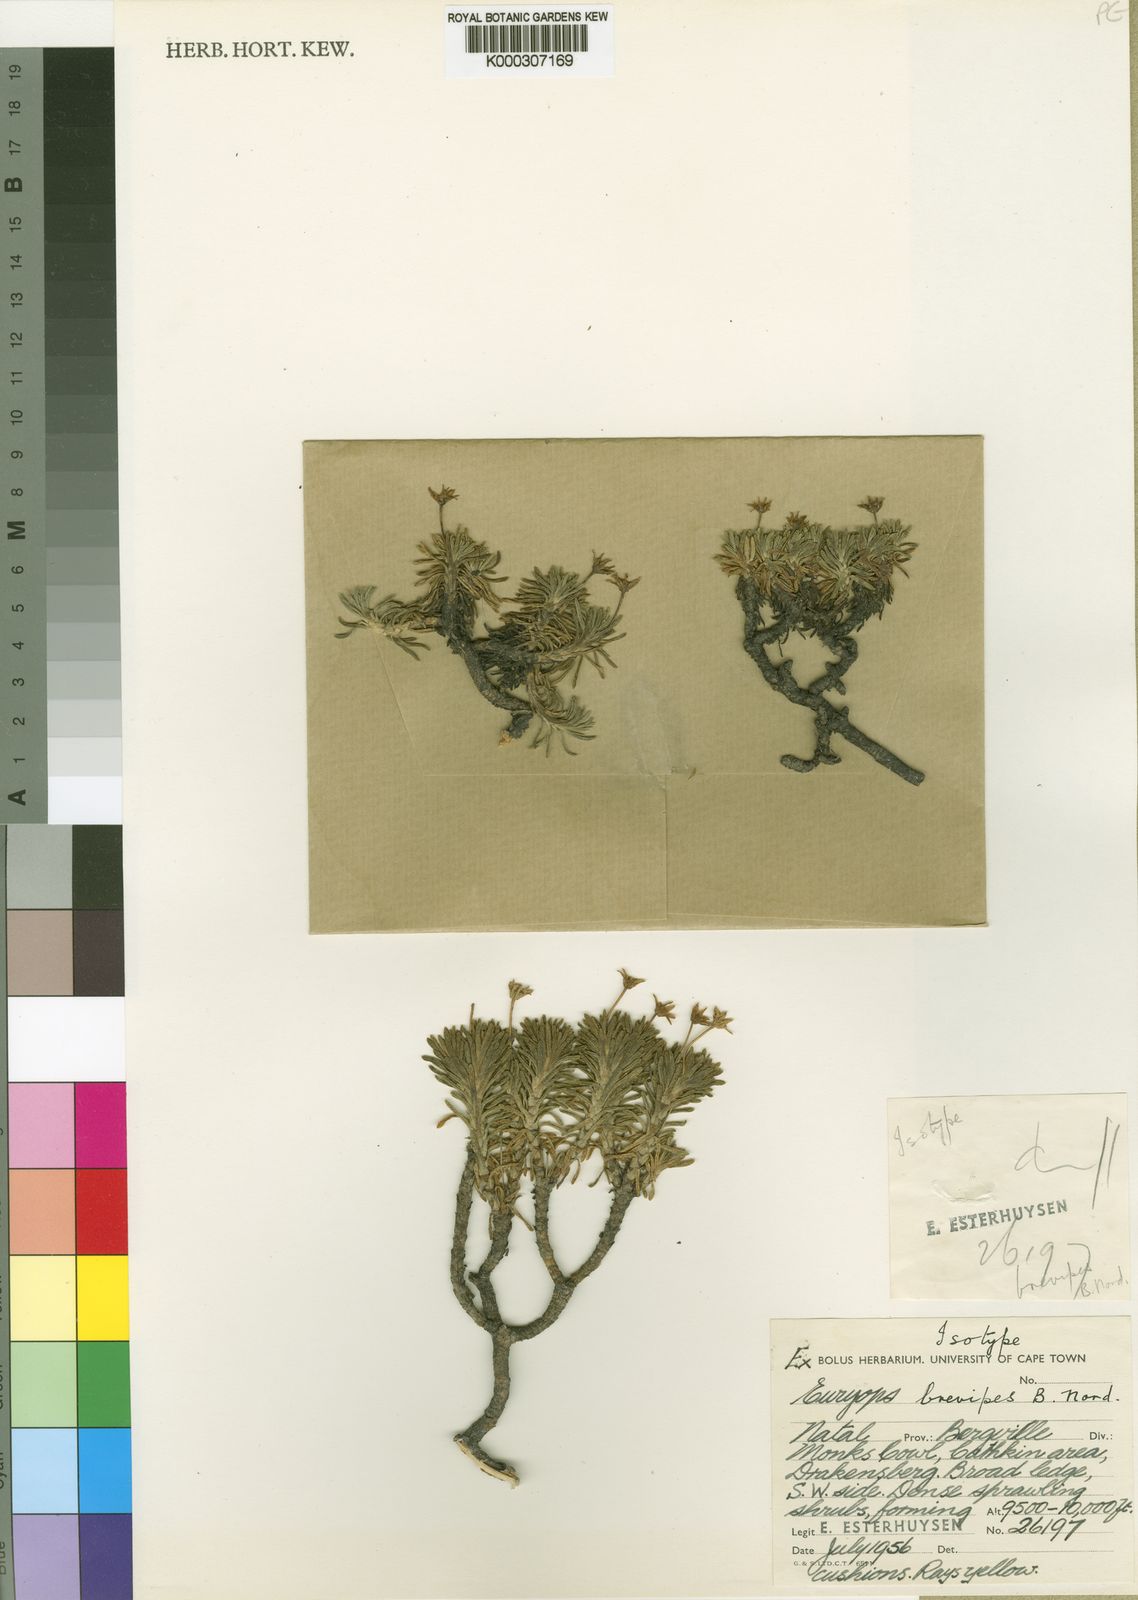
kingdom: Plantae
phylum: Tracheophyta
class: Magnoliopsida
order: Asterales
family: Asteraceae
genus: Euryops
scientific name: Euryops brevipes
